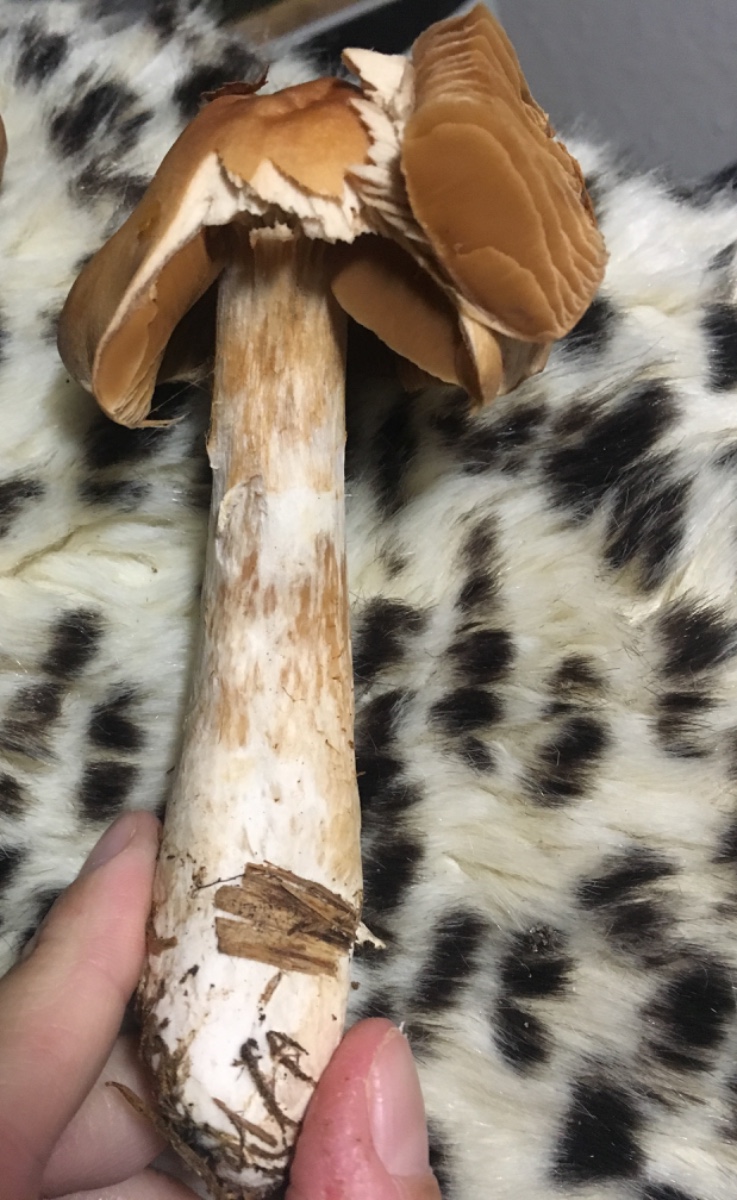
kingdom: Fungi
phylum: Basidiomycota
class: Agaricomycetes
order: Agaricales
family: Cortinariaceae
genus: Cortinarius
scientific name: Cortinarius
